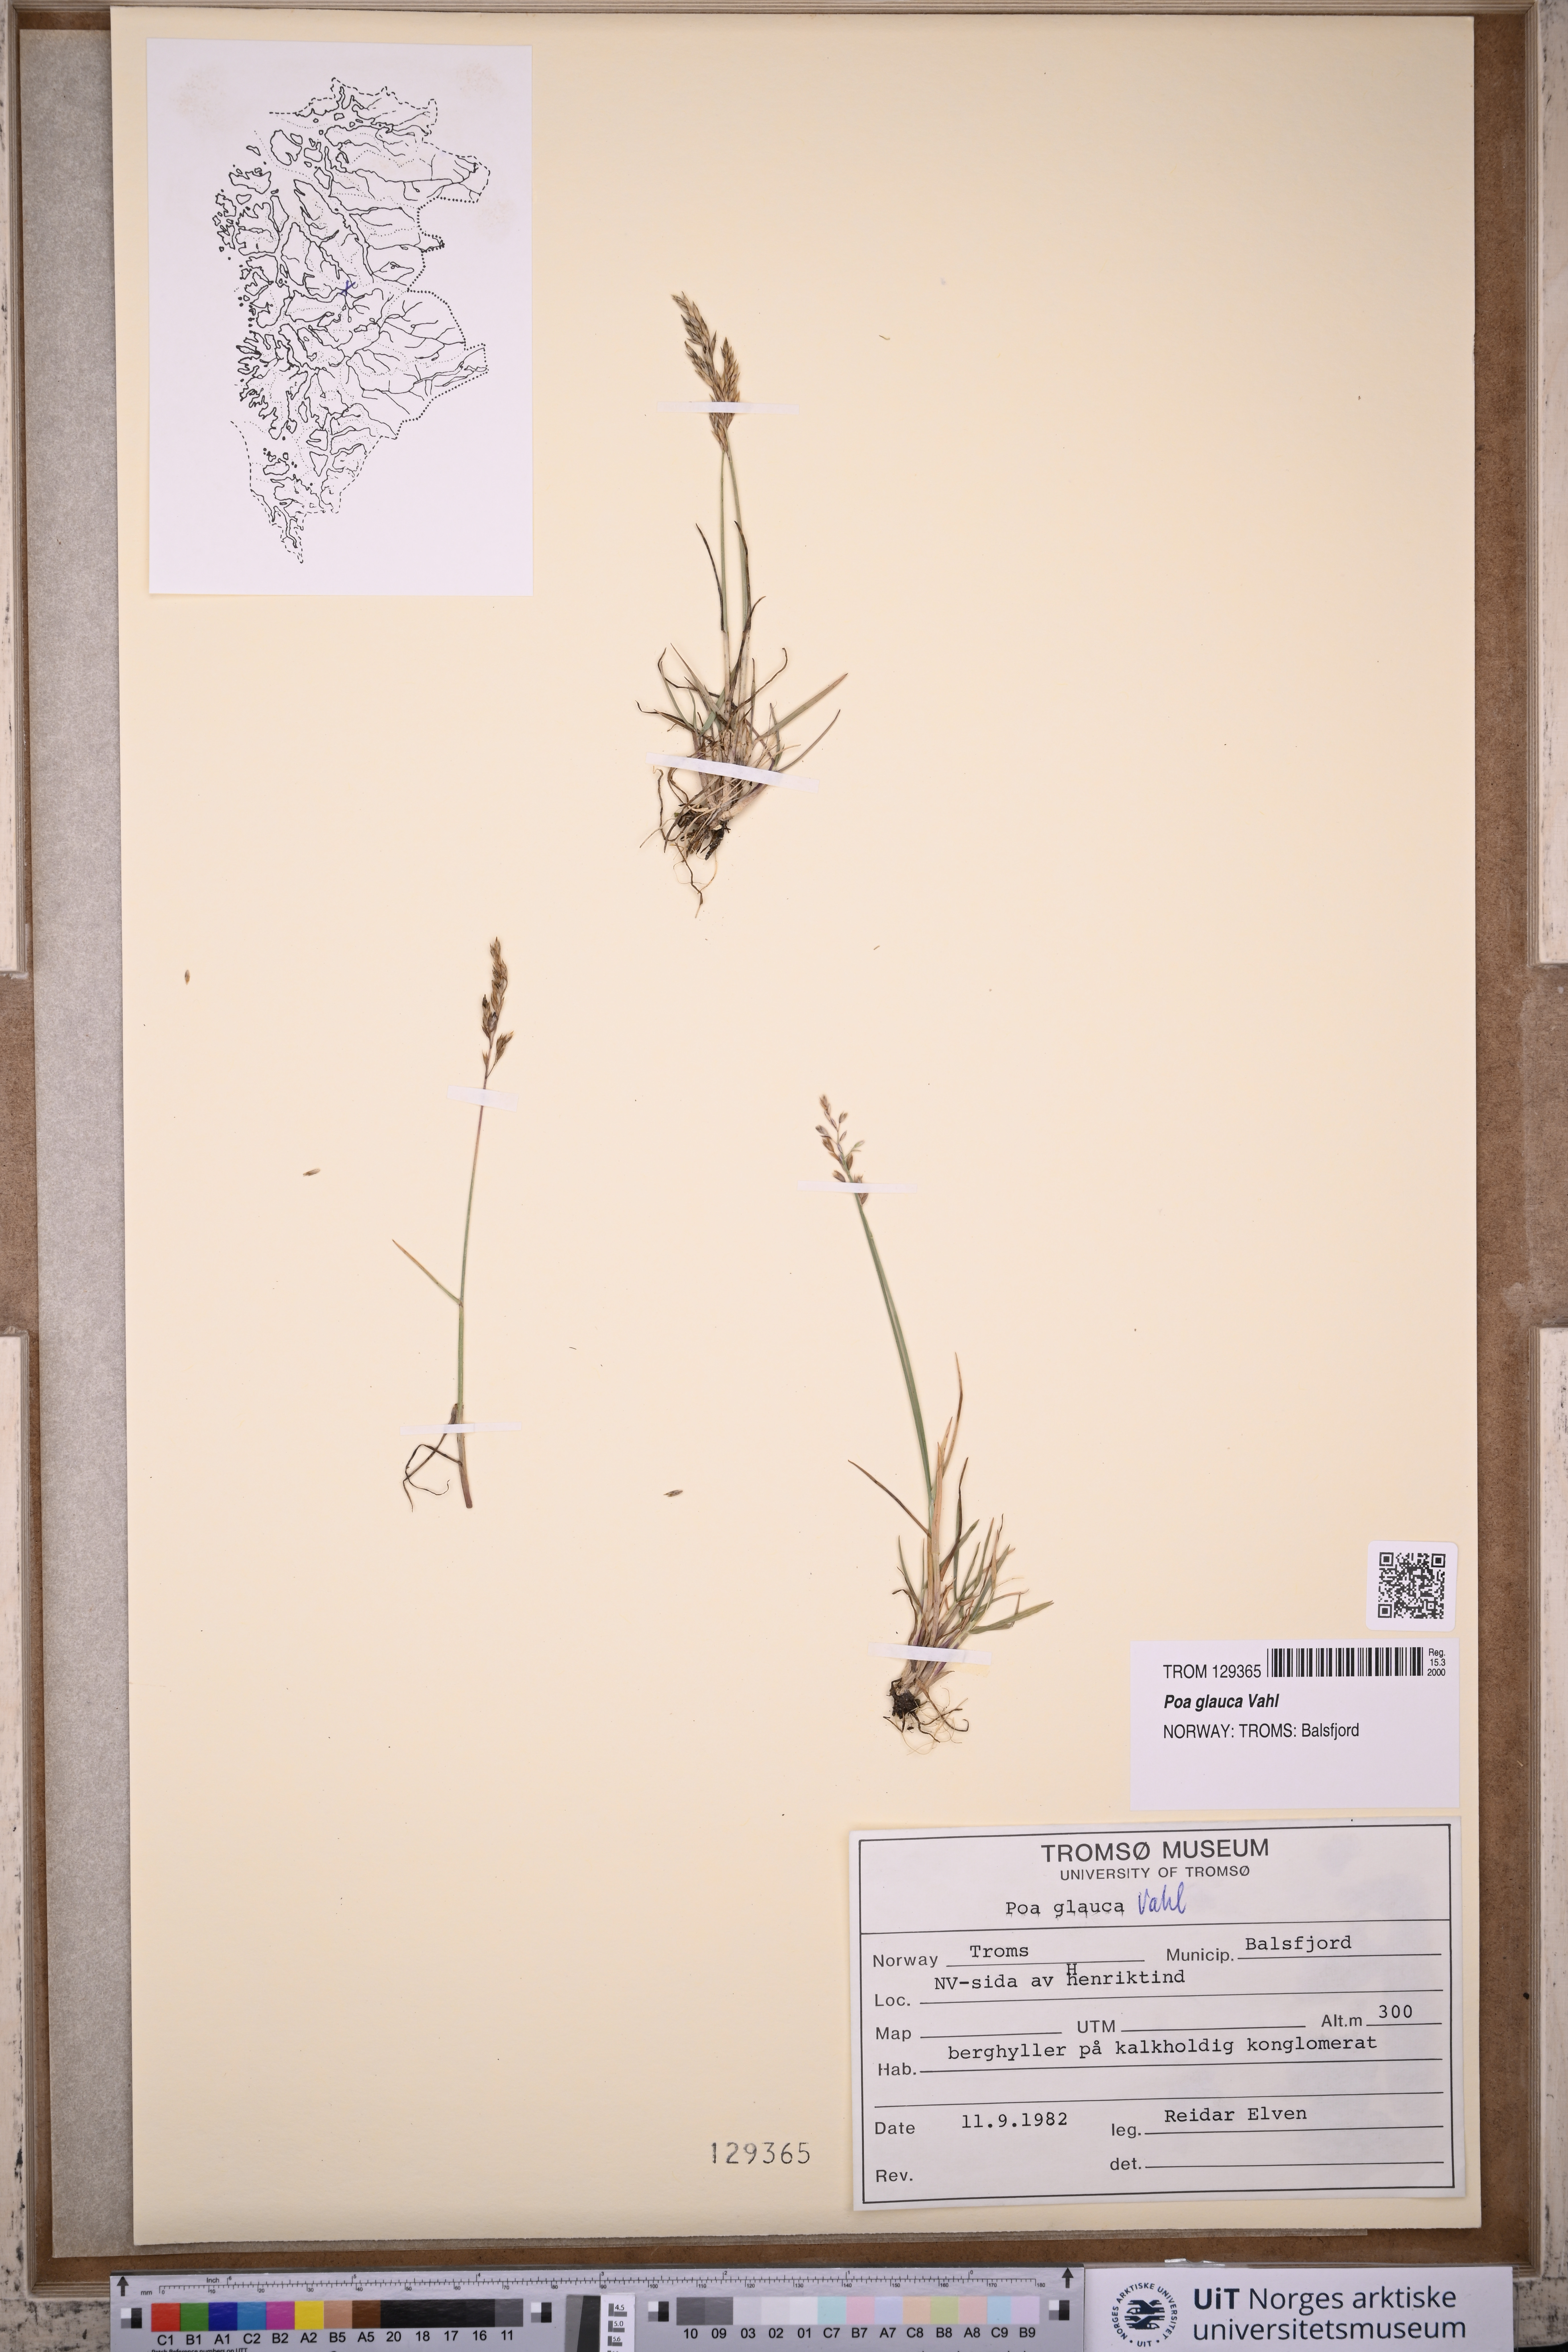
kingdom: Plantae
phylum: Tracheophyta
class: Liliopsida
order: Poales
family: Poaceae
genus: Poa
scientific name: Poa glauca
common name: Glaucous bluegrass
